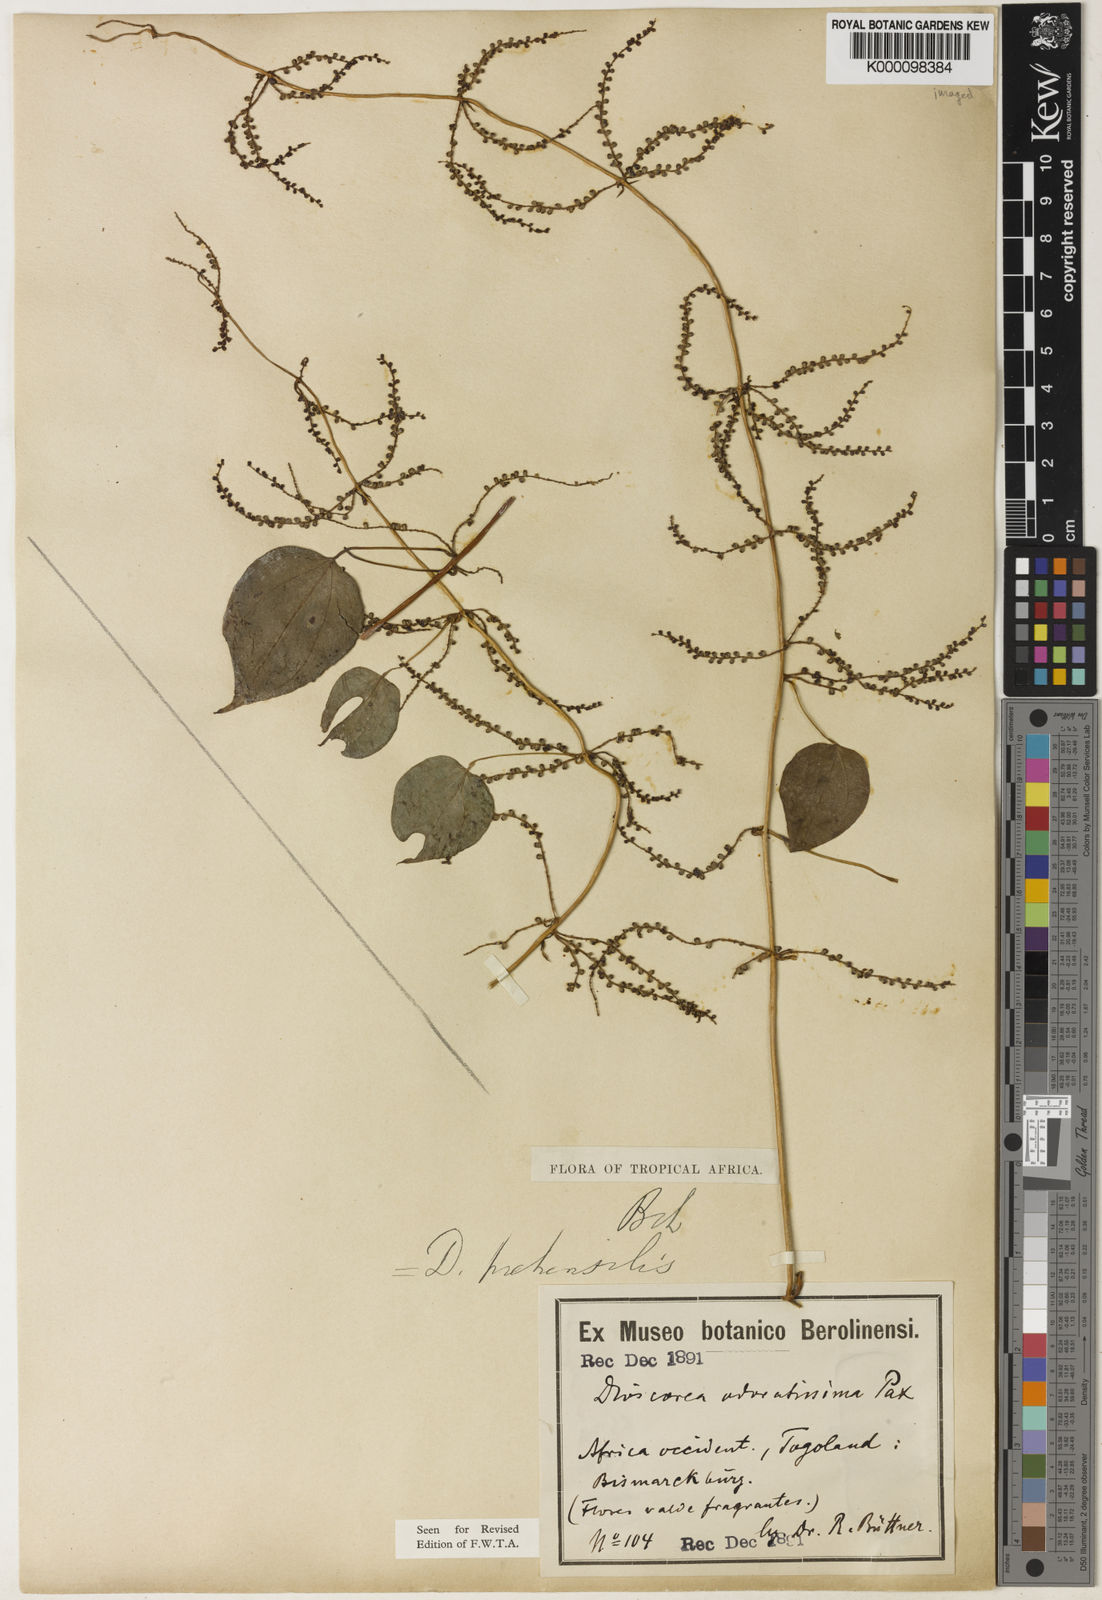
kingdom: Plantae
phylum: Tracheophyta
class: Liliopsida
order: Dioscoreales
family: Dioscoreaceae
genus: Dioscorea
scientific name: Dioscorea praehensilis
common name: Bush yam
